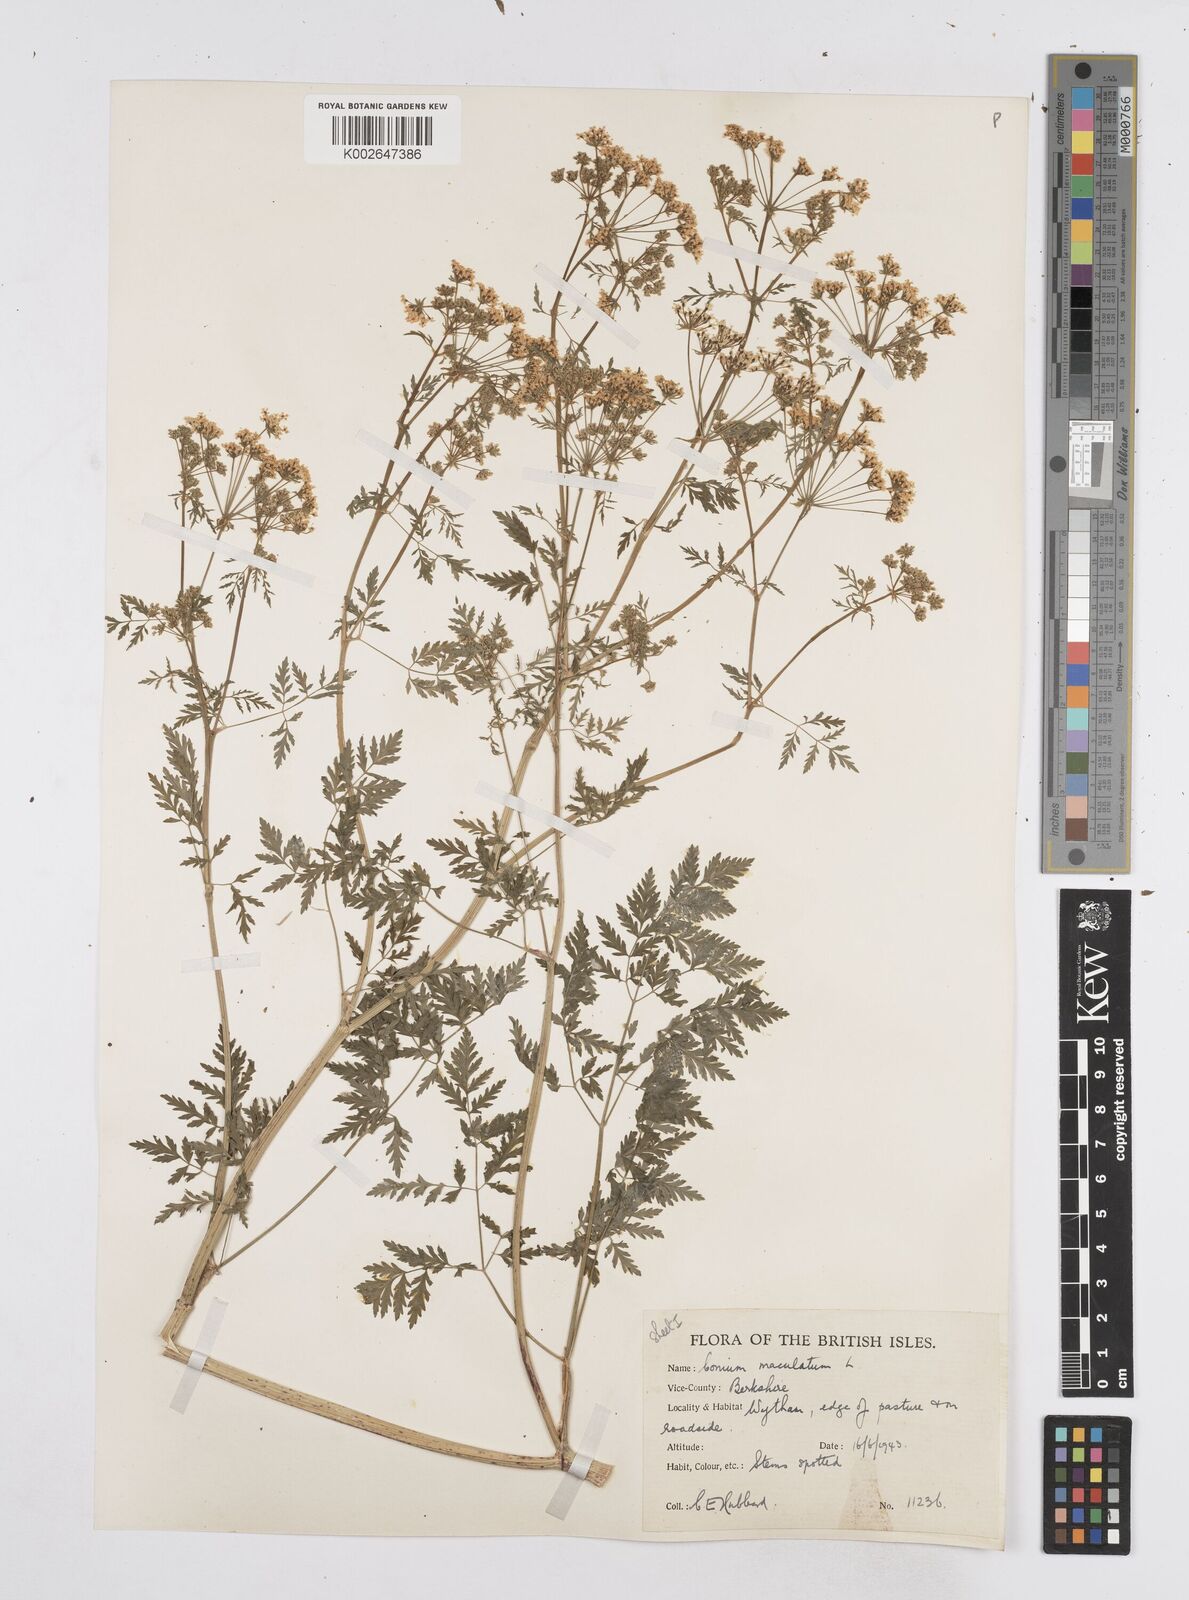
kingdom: Plantae
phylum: Tracheophyta
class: Magnoliopsida
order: Apiales
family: Apiaceae
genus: Conium
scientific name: Conium maculatum
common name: Hemlock
